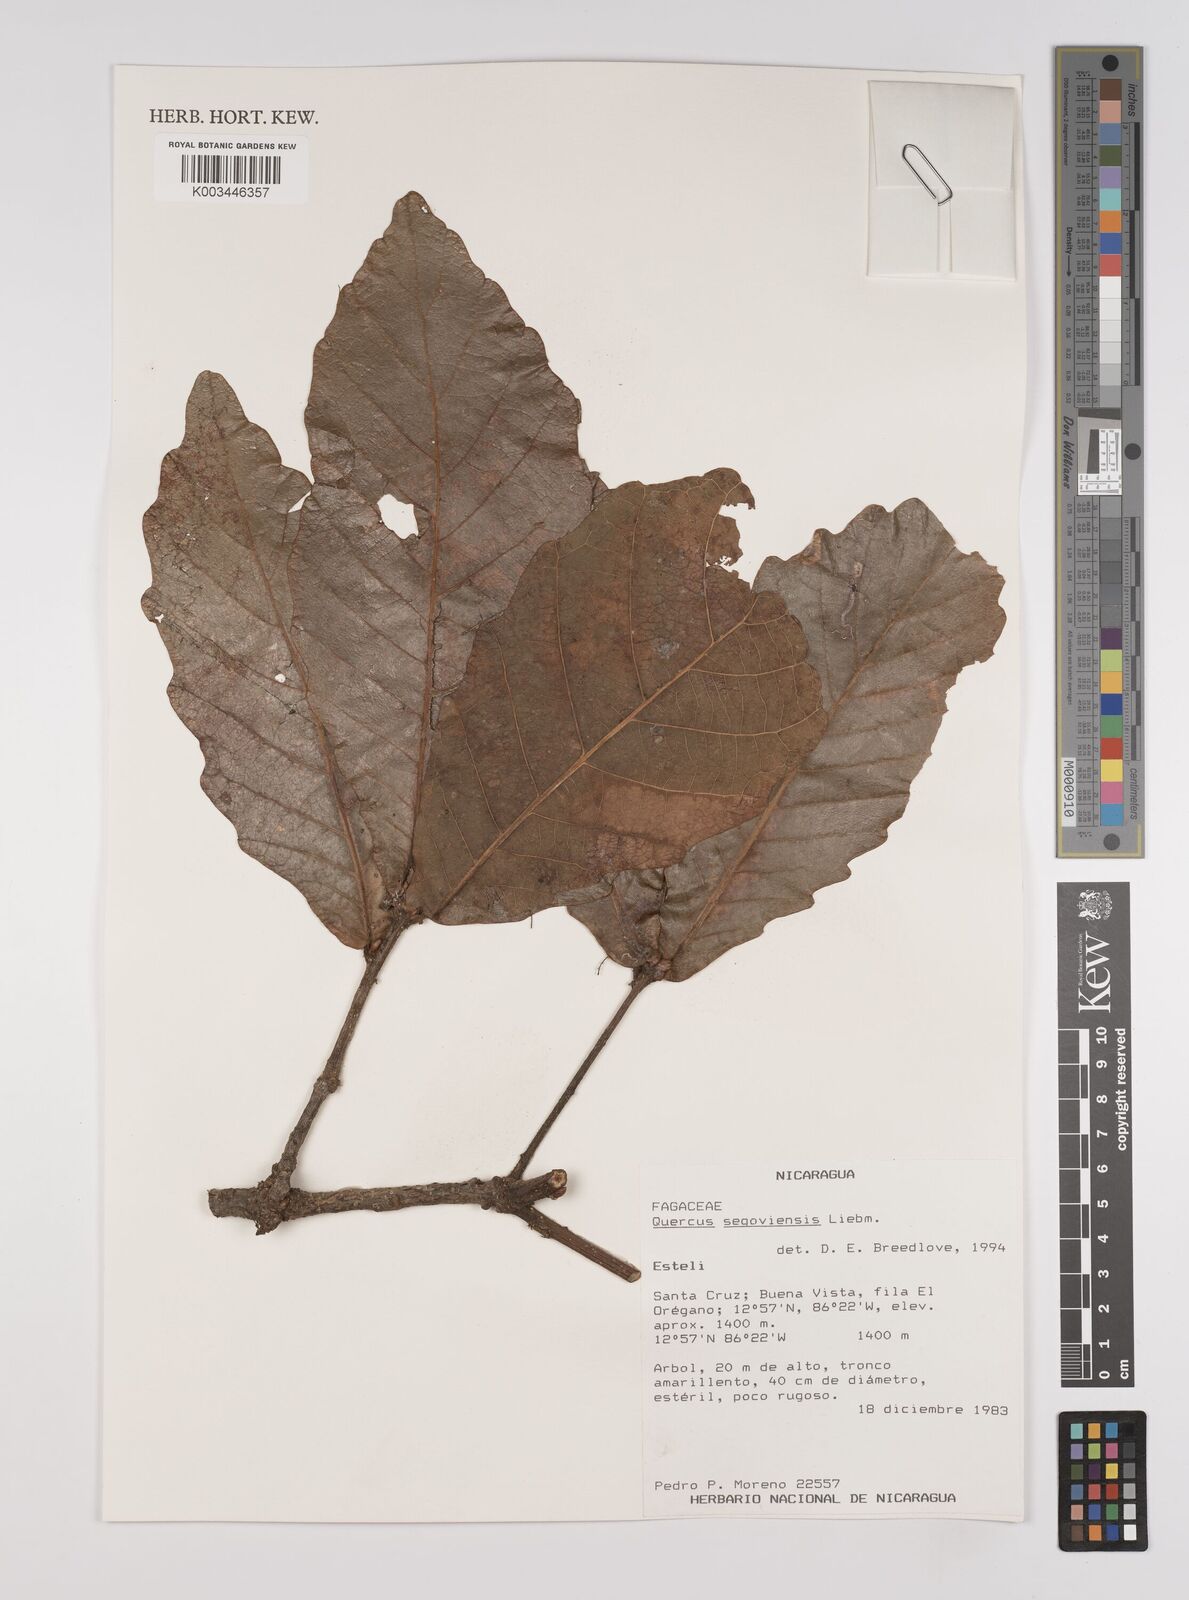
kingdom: Plantae
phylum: Tracheophyta
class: Magnoliopsida
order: Fagales
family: Fagaceae
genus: Quercus
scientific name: Quercus segoviensis
